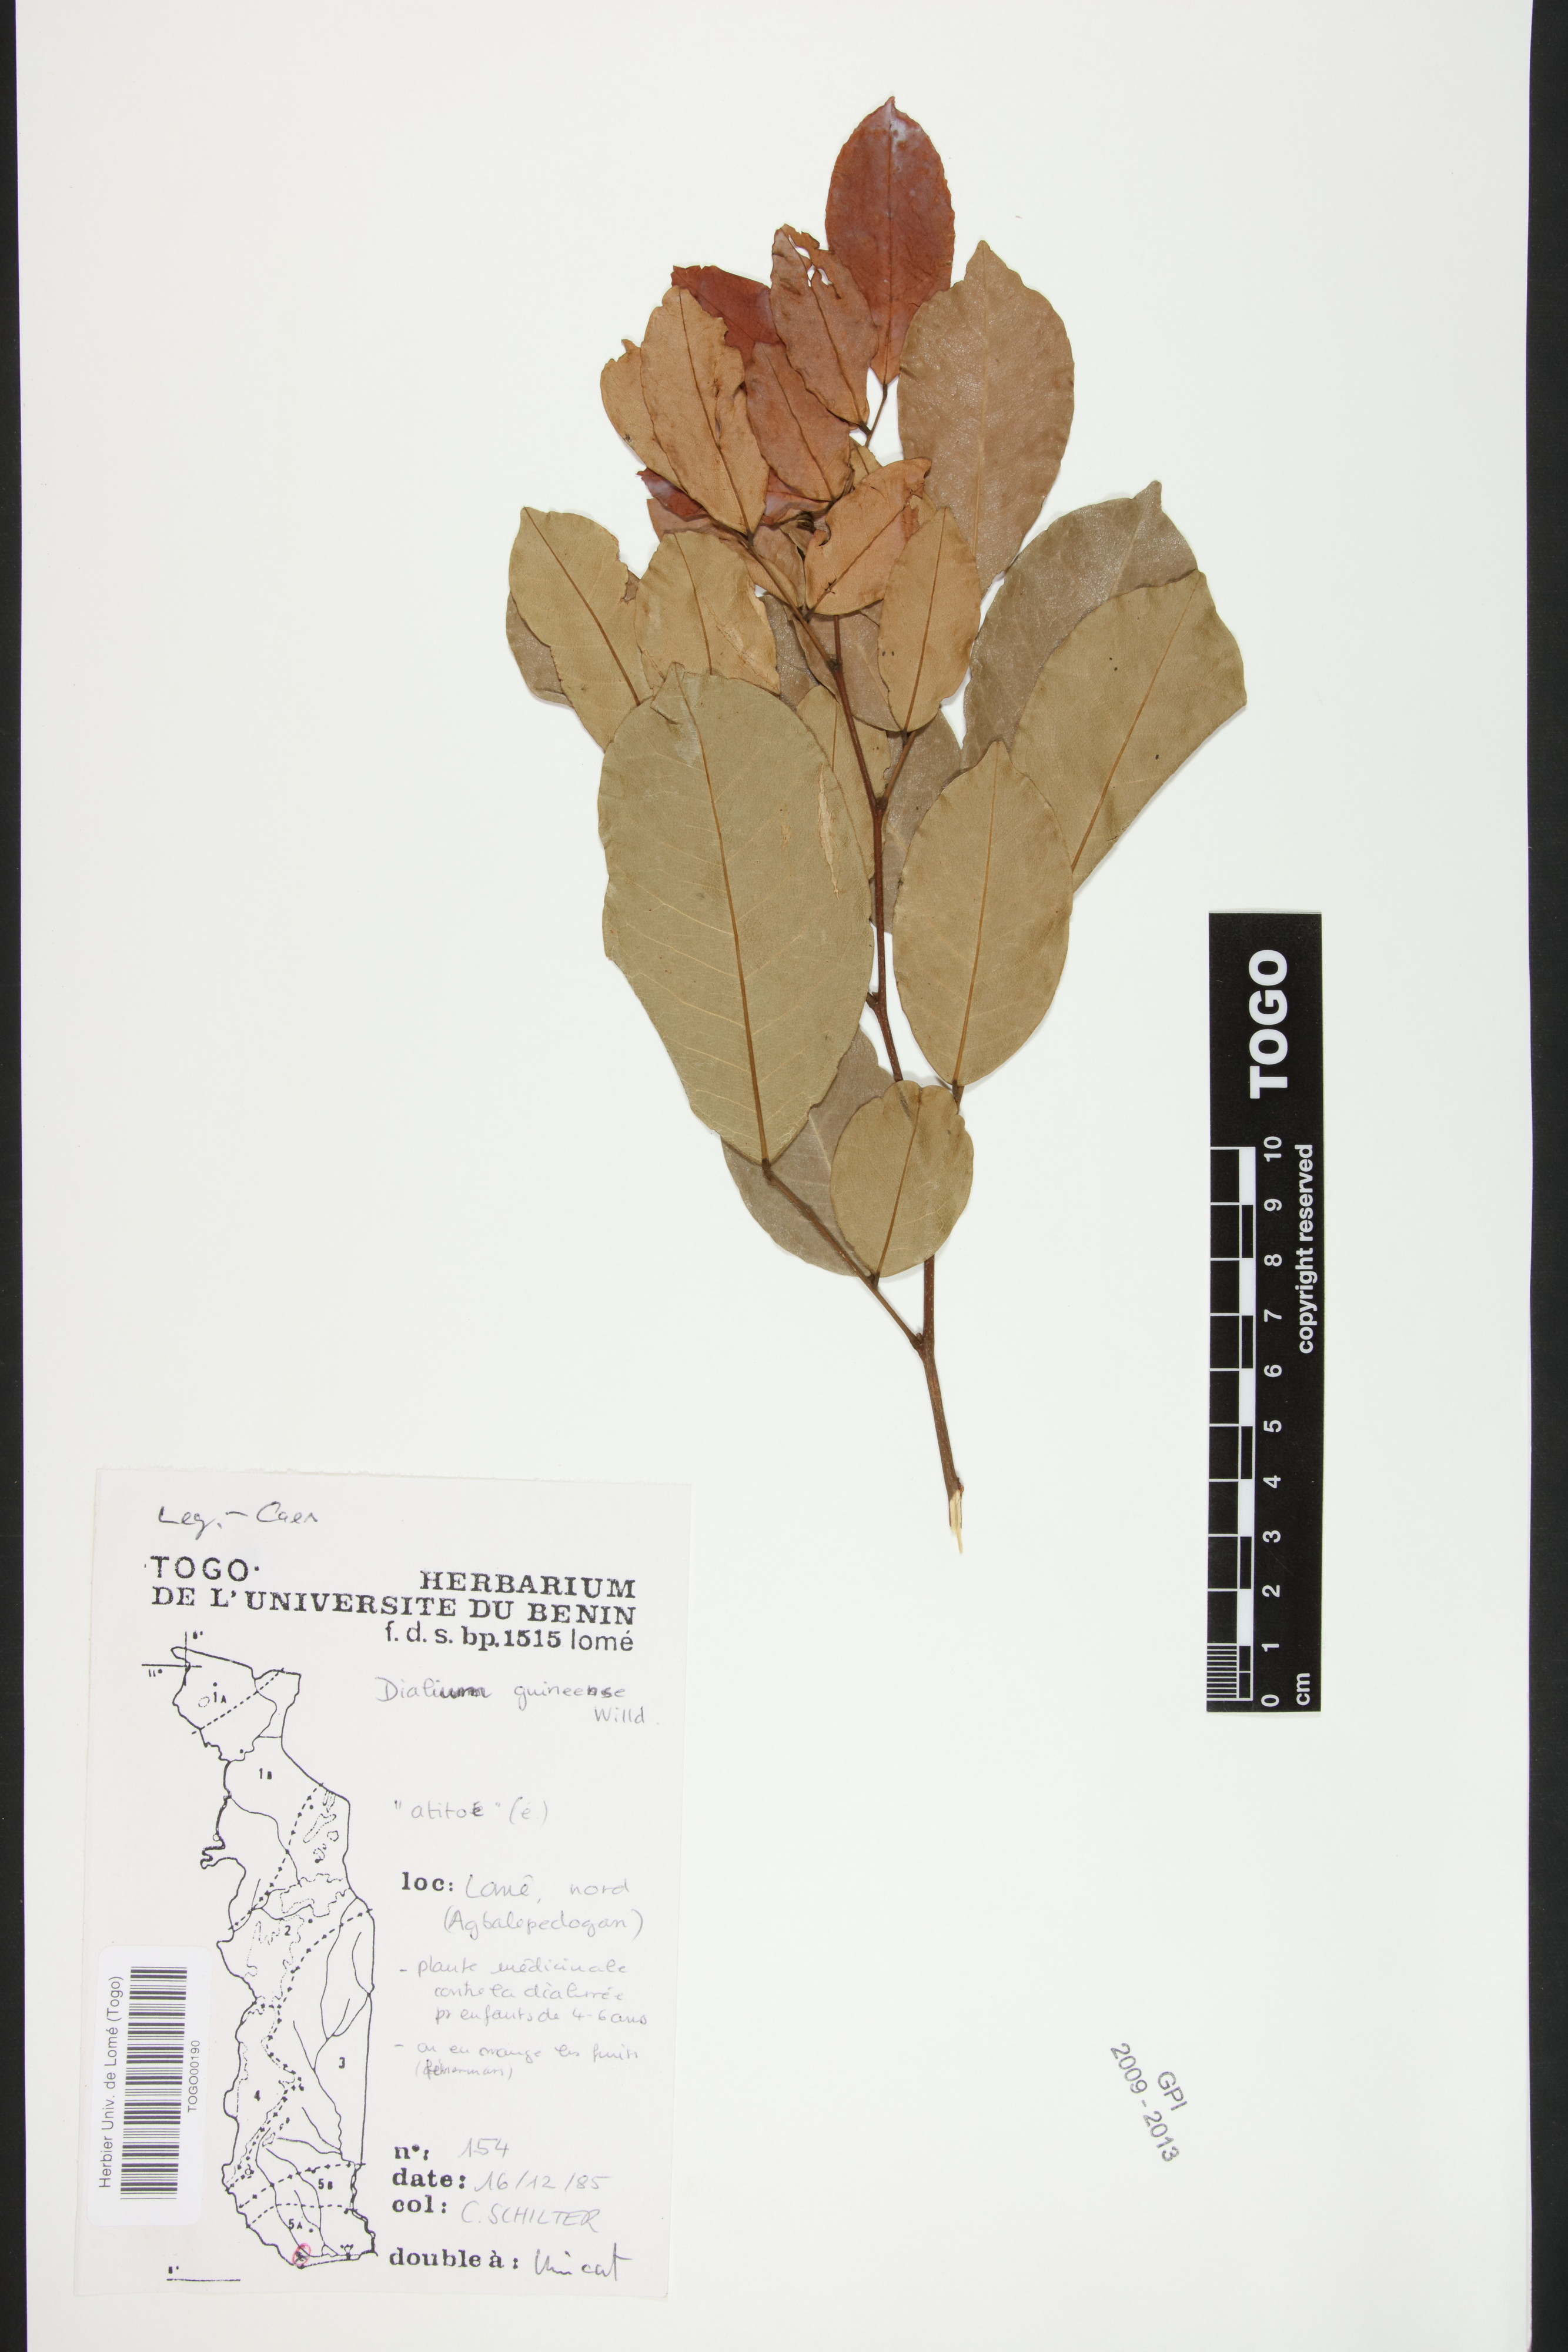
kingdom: Plantae
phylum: Tracheophyta
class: Magnoliopsida
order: Fabales
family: Fabaceae
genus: Dialium
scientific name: Dialium guineense
